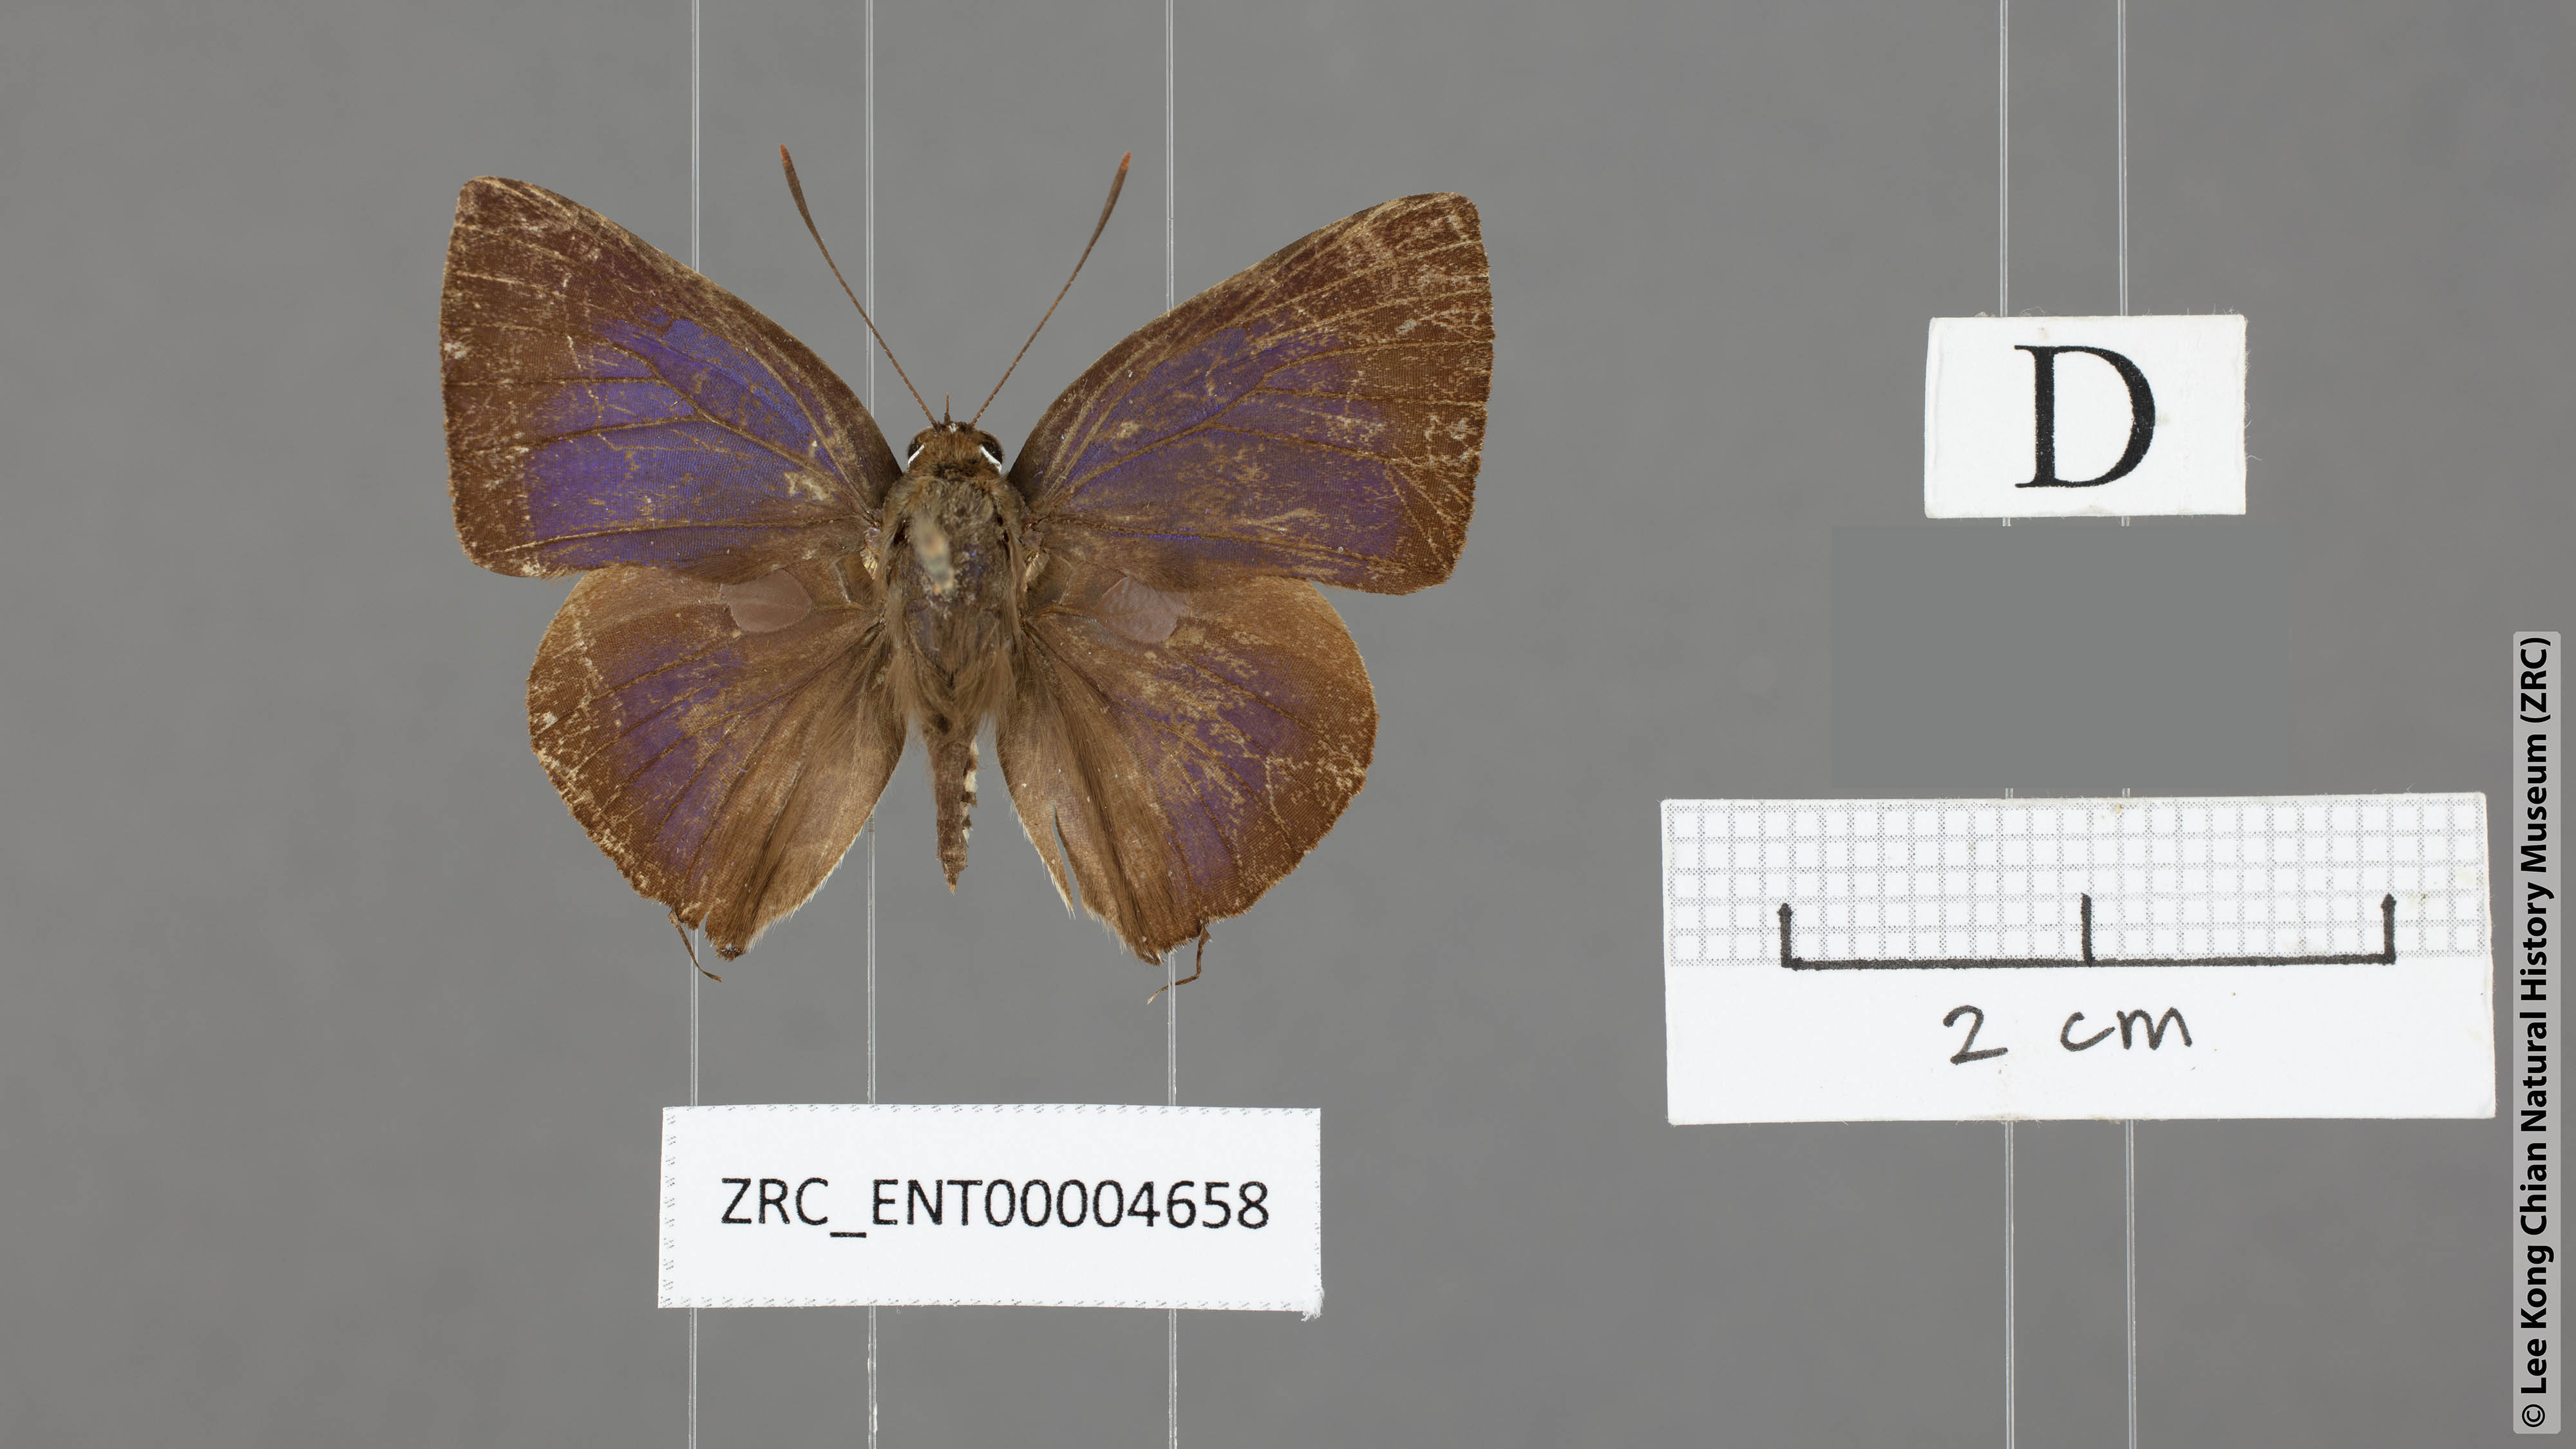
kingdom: Animalia
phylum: Arthropoda
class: Insecta
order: Lepidoptera
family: Lycaenidae
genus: Deudorix
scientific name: Deudorix
